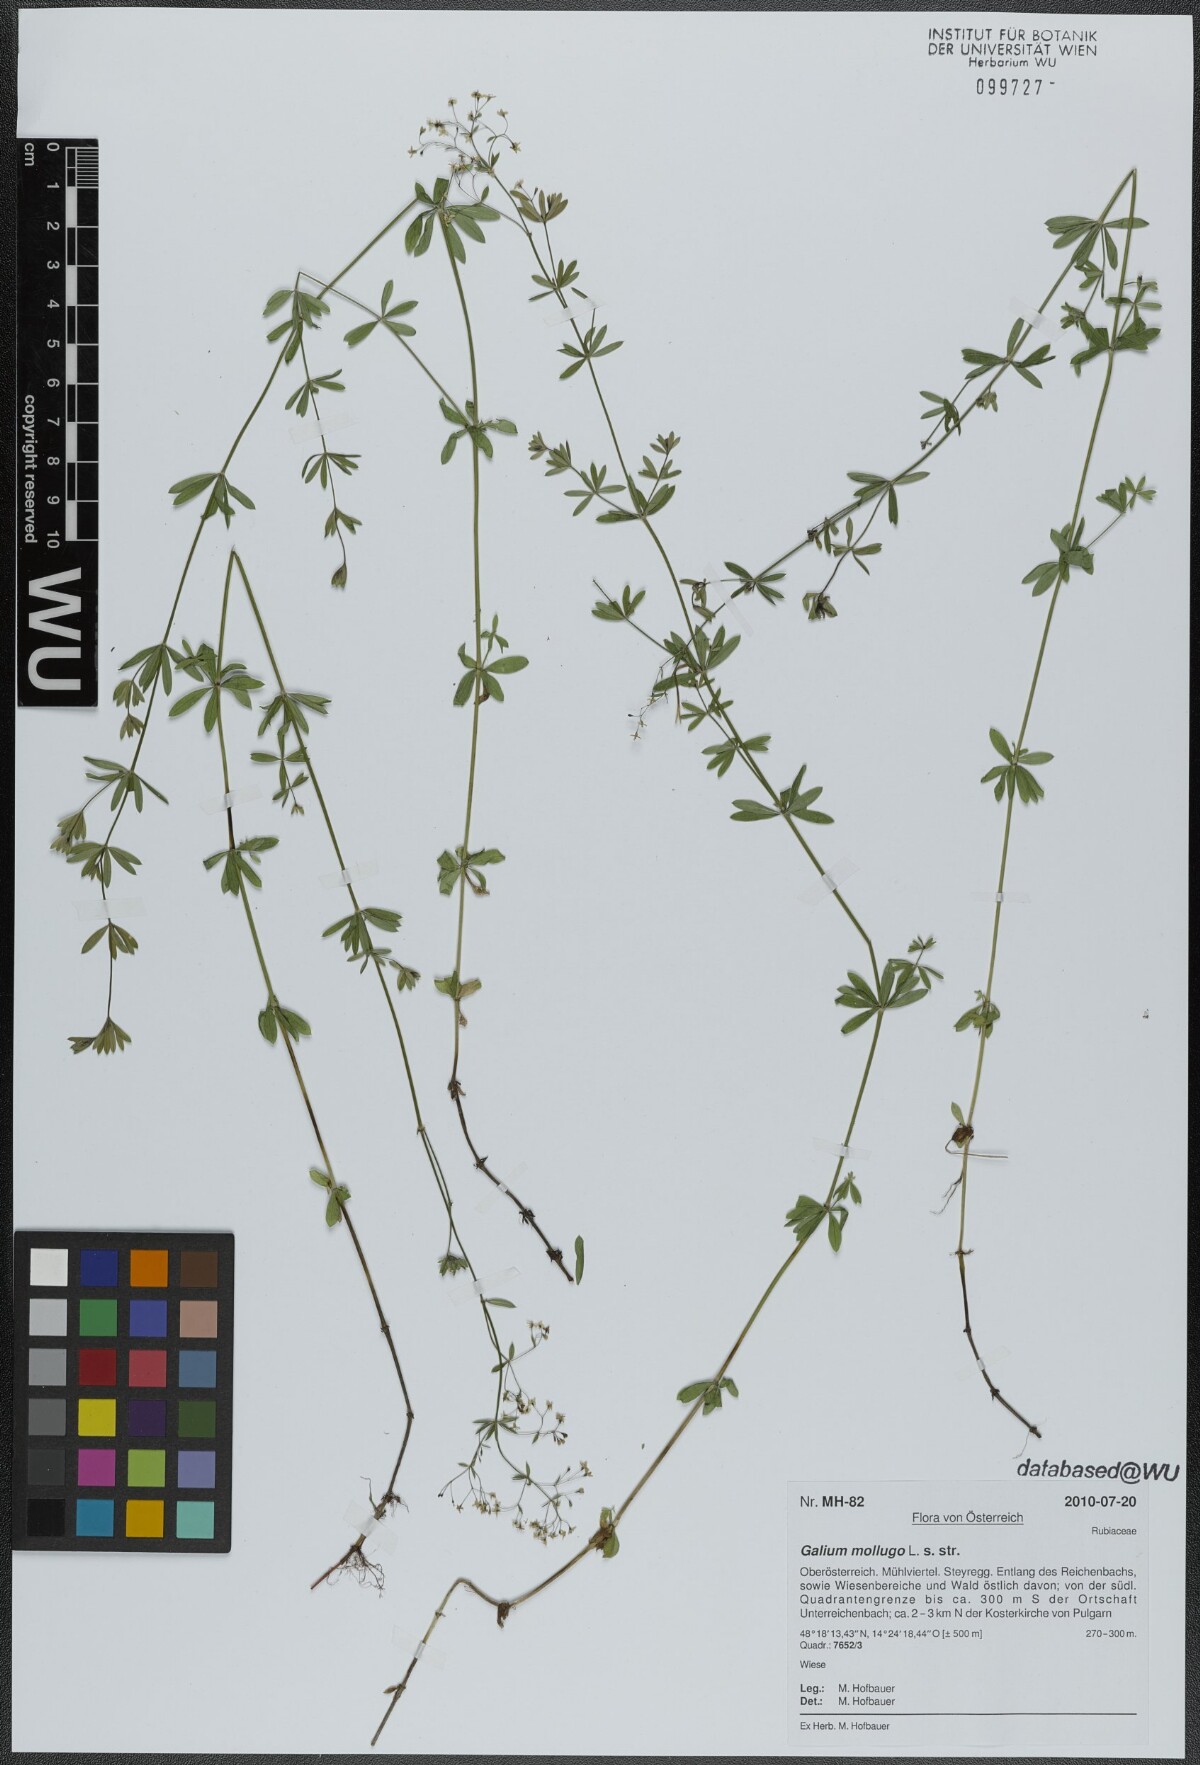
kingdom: Plantae
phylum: Tracheophyta
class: Magnoliopsida
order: Gentianales
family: Rubiaceae
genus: Galium
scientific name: Galium mollugo
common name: Hedge bedstraw
